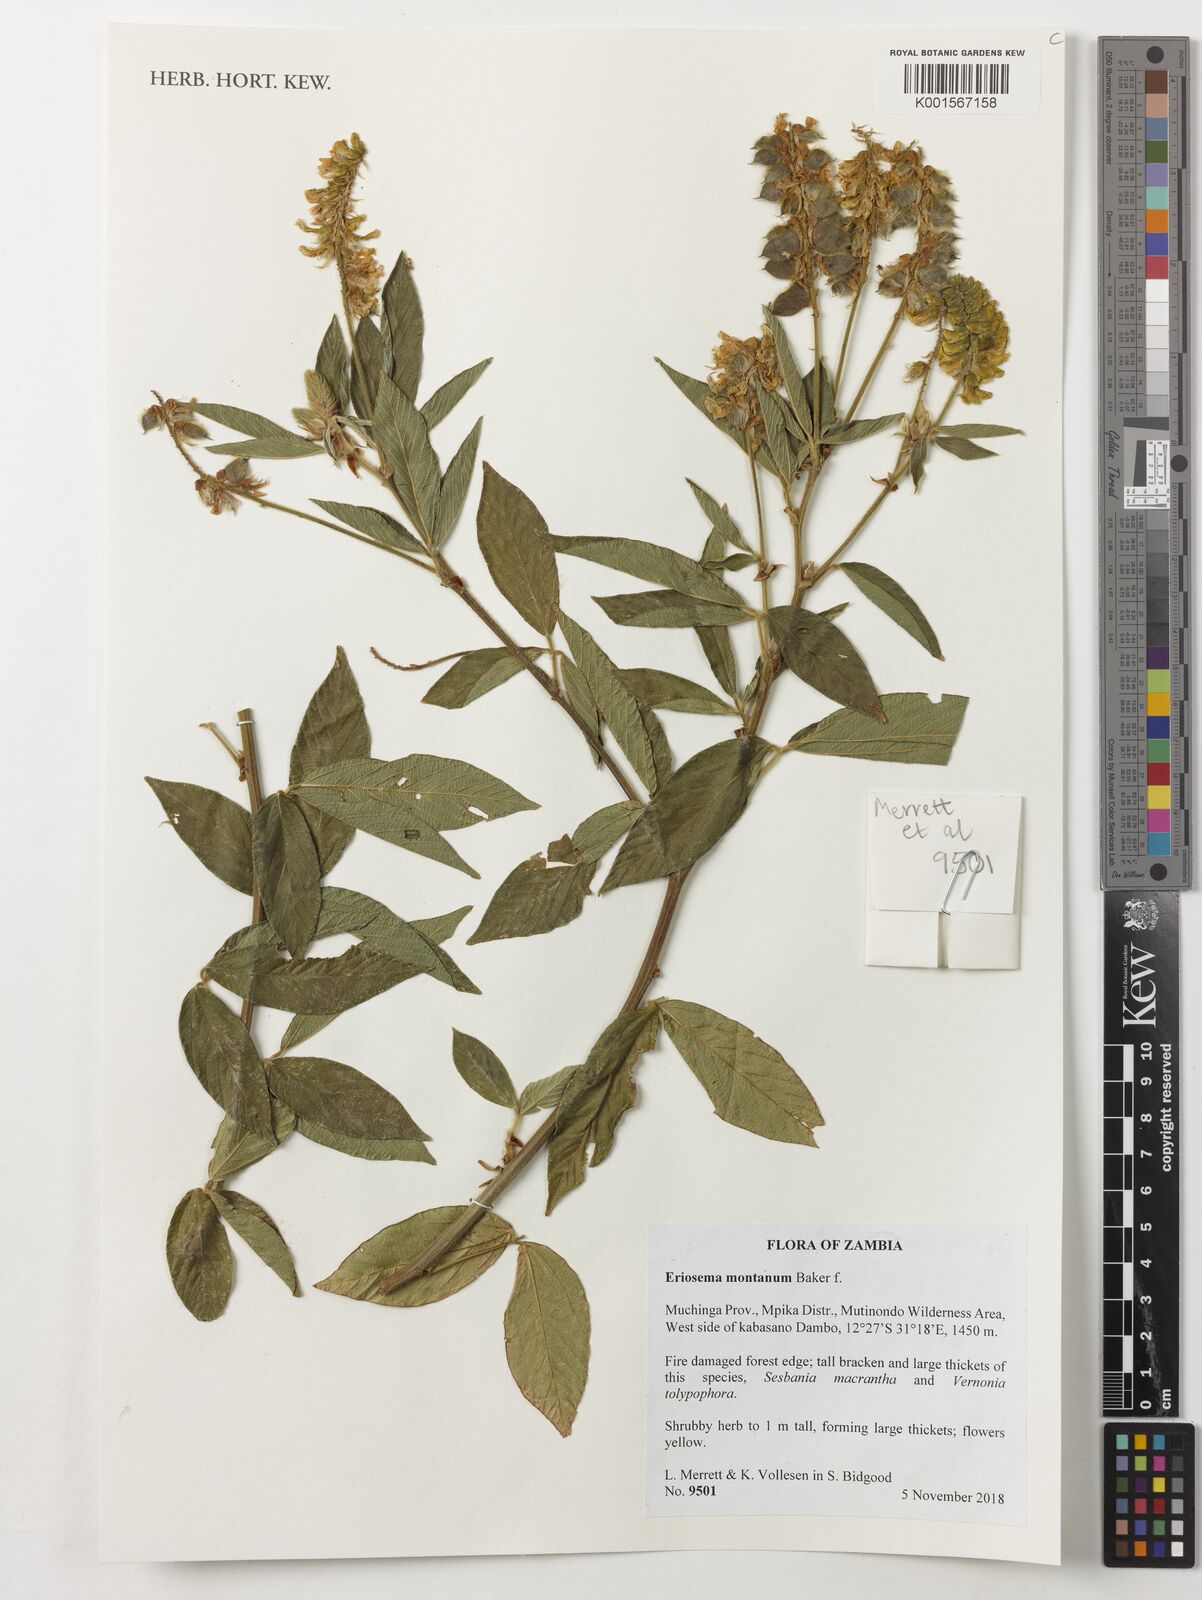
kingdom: Plantae
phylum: Tracheophyta
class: Magnoliopsida
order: Fabales
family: Fabaceae
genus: Eriosema
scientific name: Eriosema montanum
